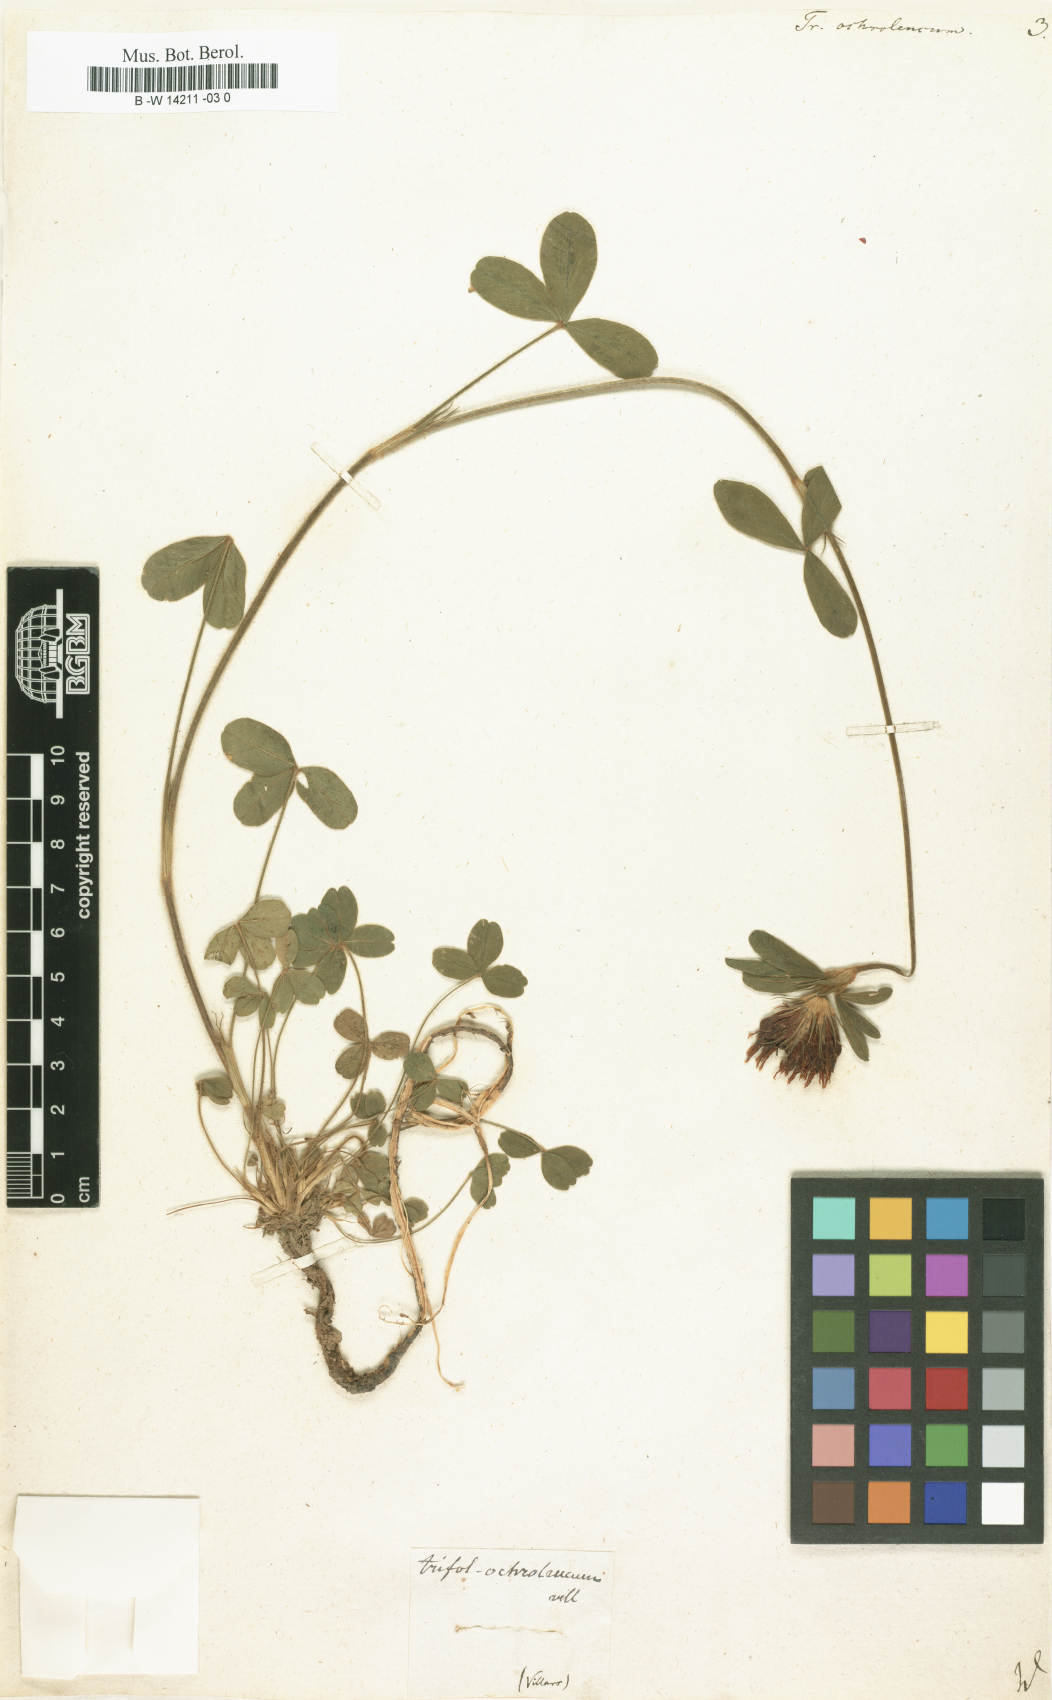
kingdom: Plantae
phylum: Tracheophyta
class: Magnoliopsida
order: Fabales
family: Fabaceae
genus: Trifolium
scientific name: Trifolium
